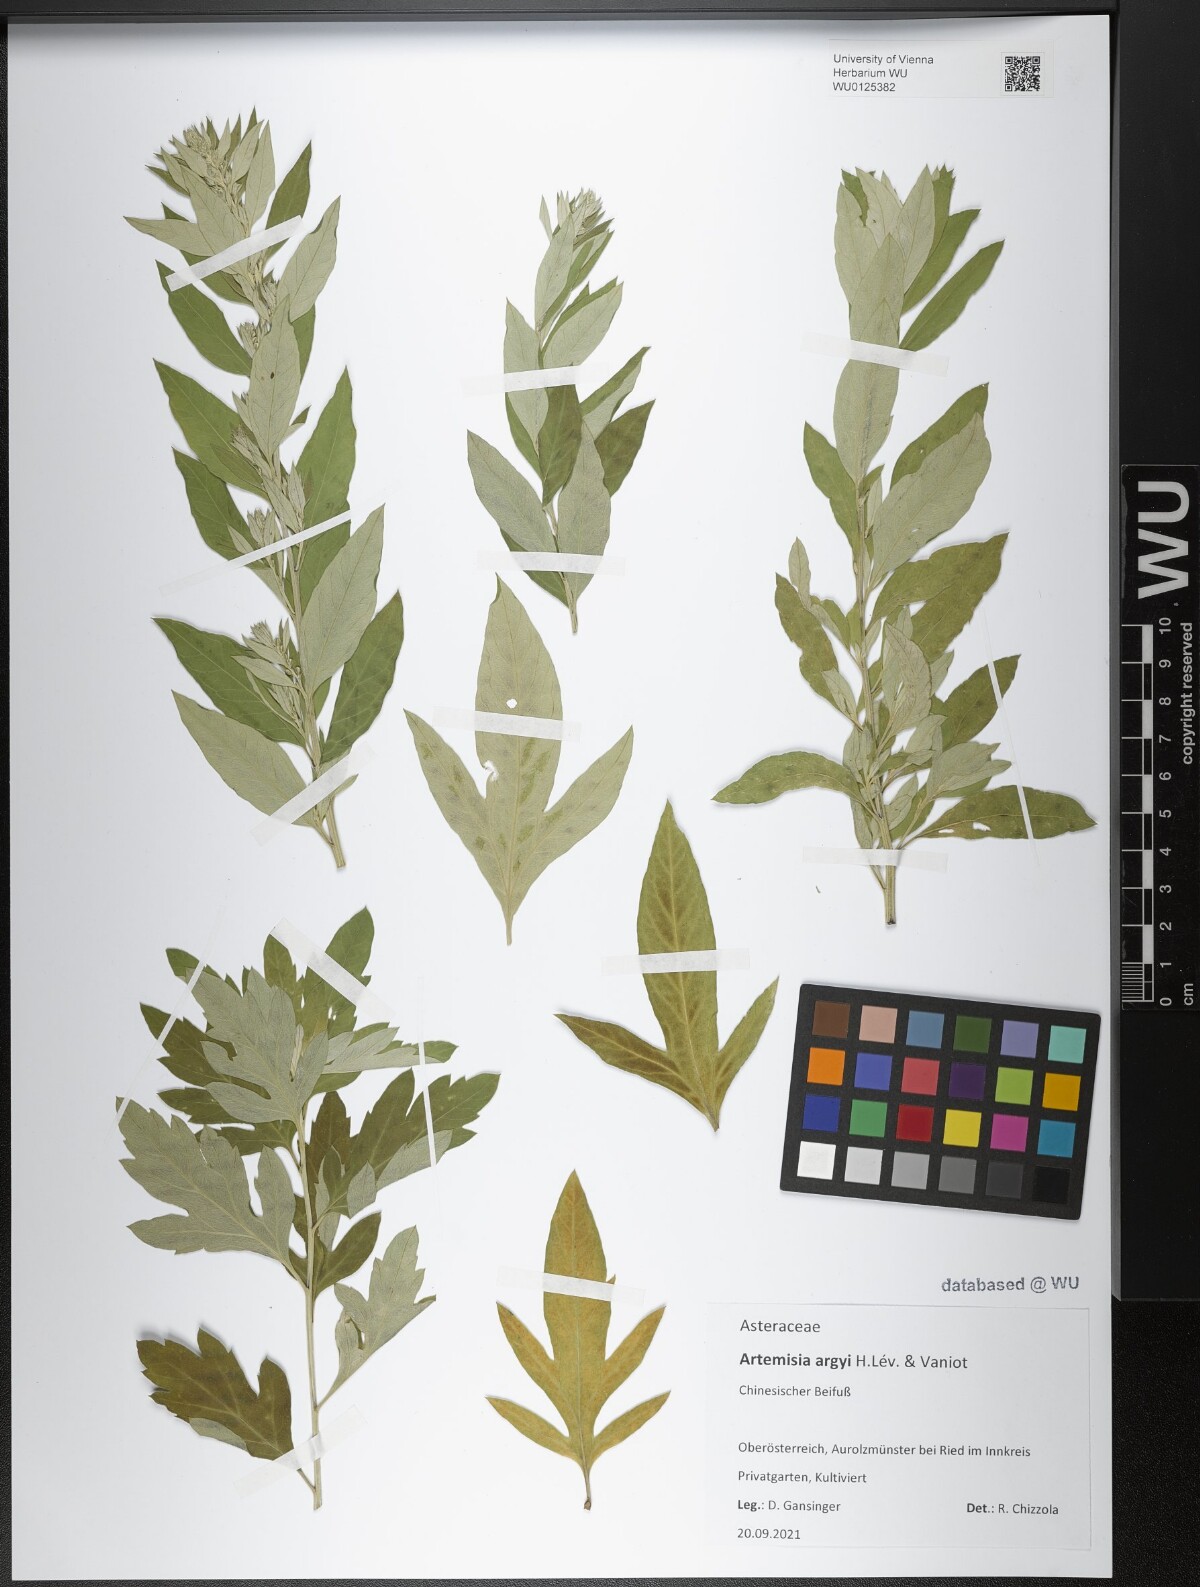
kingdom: Plantae
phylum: Tracheophyta
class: Magnoliopsida
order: Asterales
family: Asteraceae
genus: Artemisia
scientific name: Artemisia argyi
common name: Chinese mugwort
